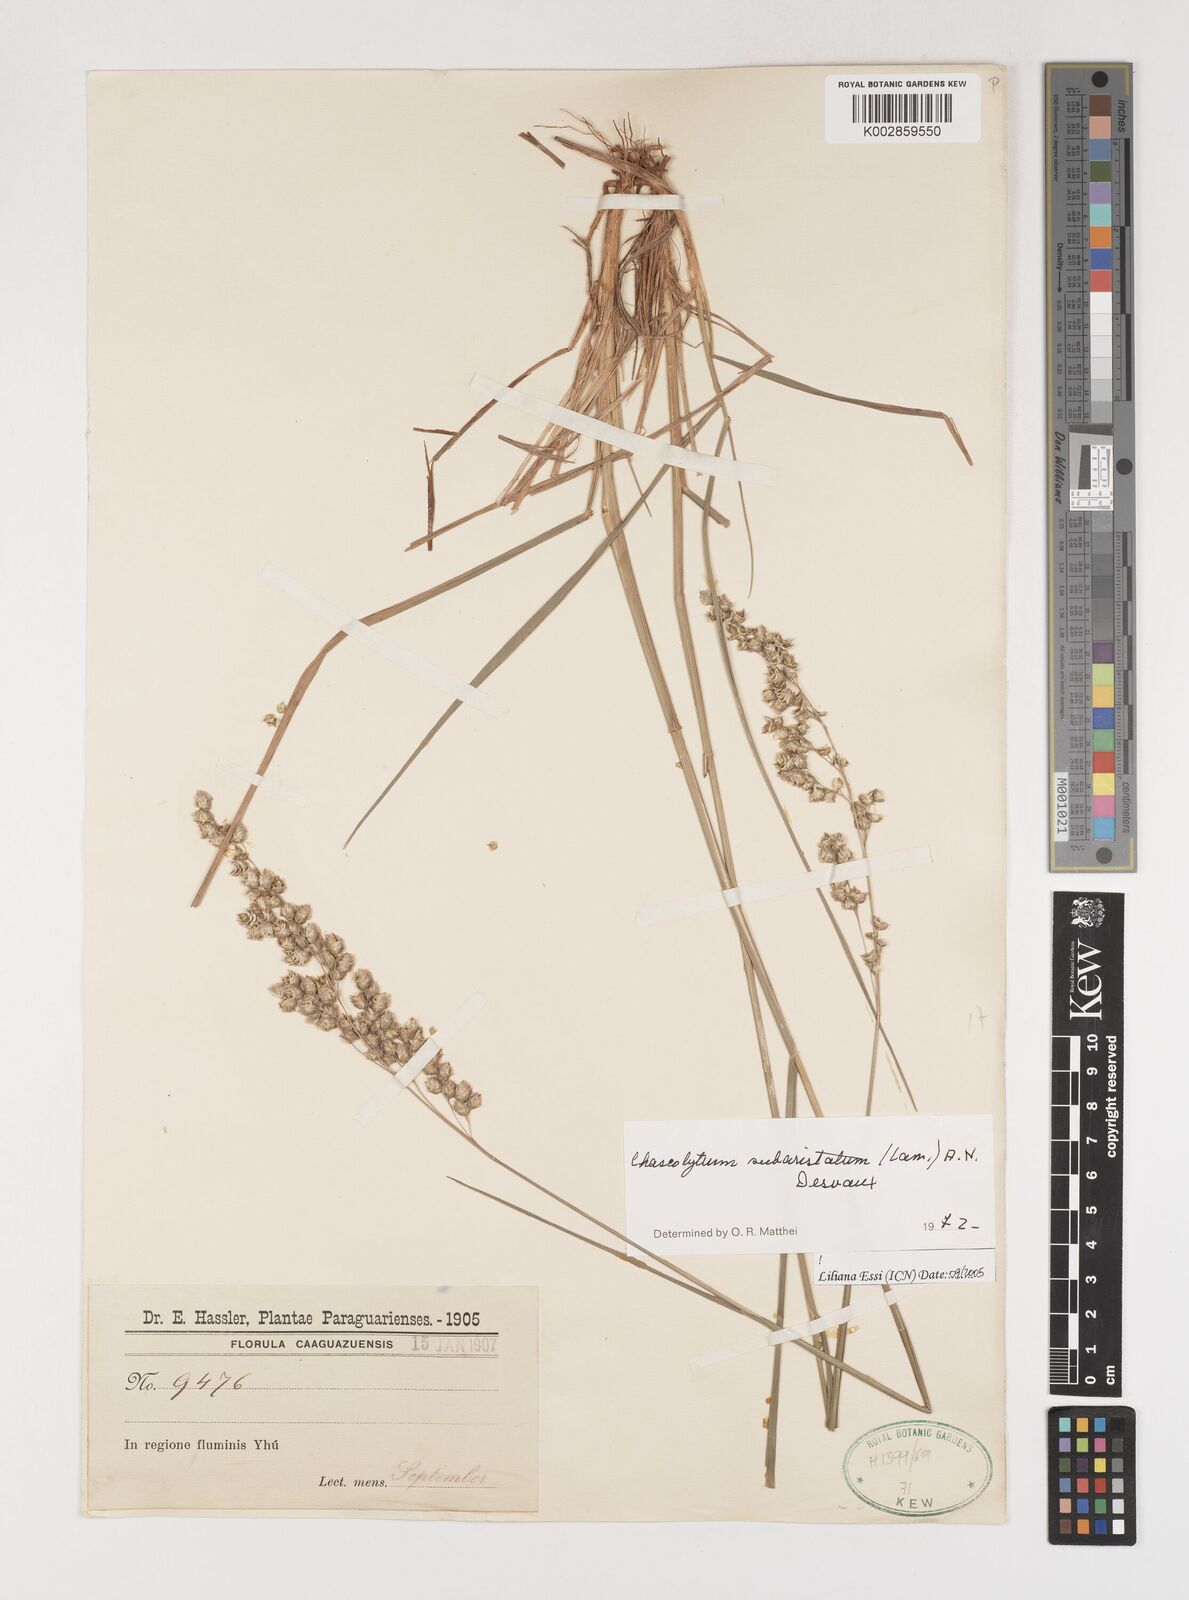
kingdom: Plantae
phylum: Tracheophyta
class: Liliopsida
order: Poales
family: Poaceae
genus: Chascolytrum
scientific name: Chascolytrum subaristatum
